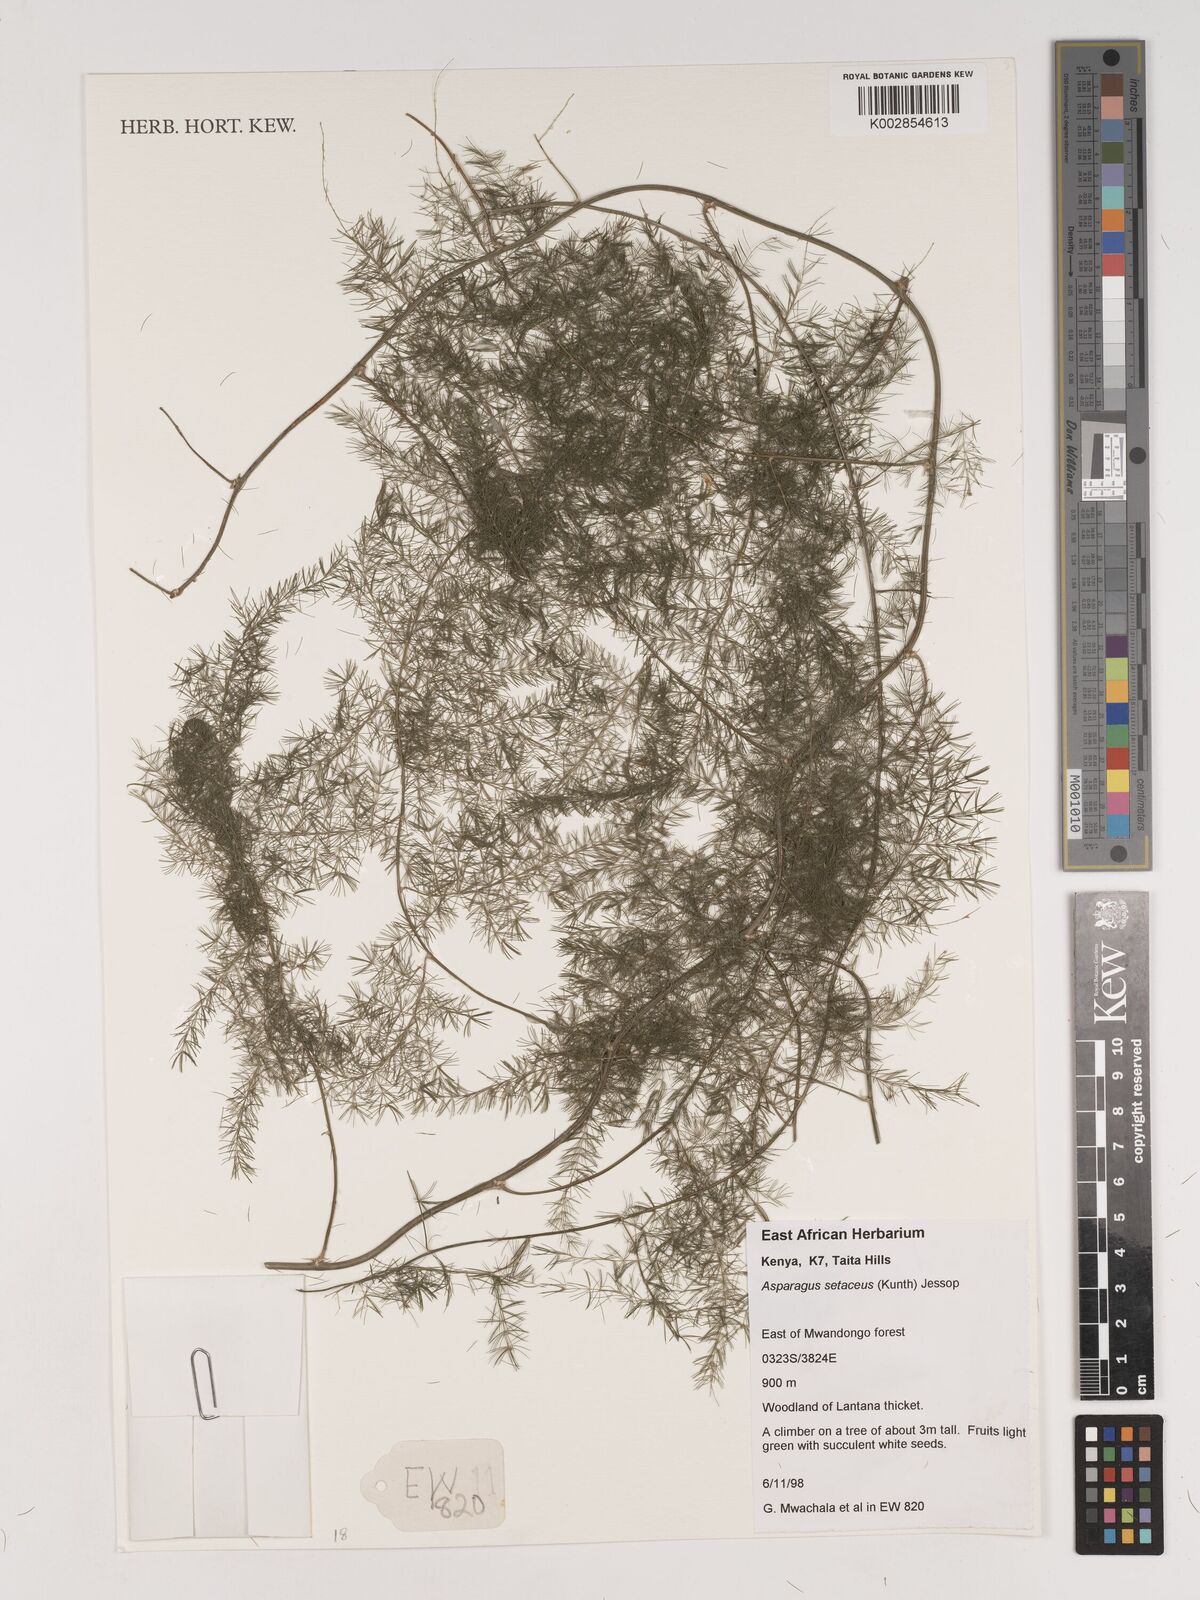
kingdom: Plantae
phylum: Tracheophyta
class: Liliopsida
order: Asparagales
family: Asparagaceae
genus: Asparagus
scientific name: Asparagus setaceus
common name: Common asparagus fern
